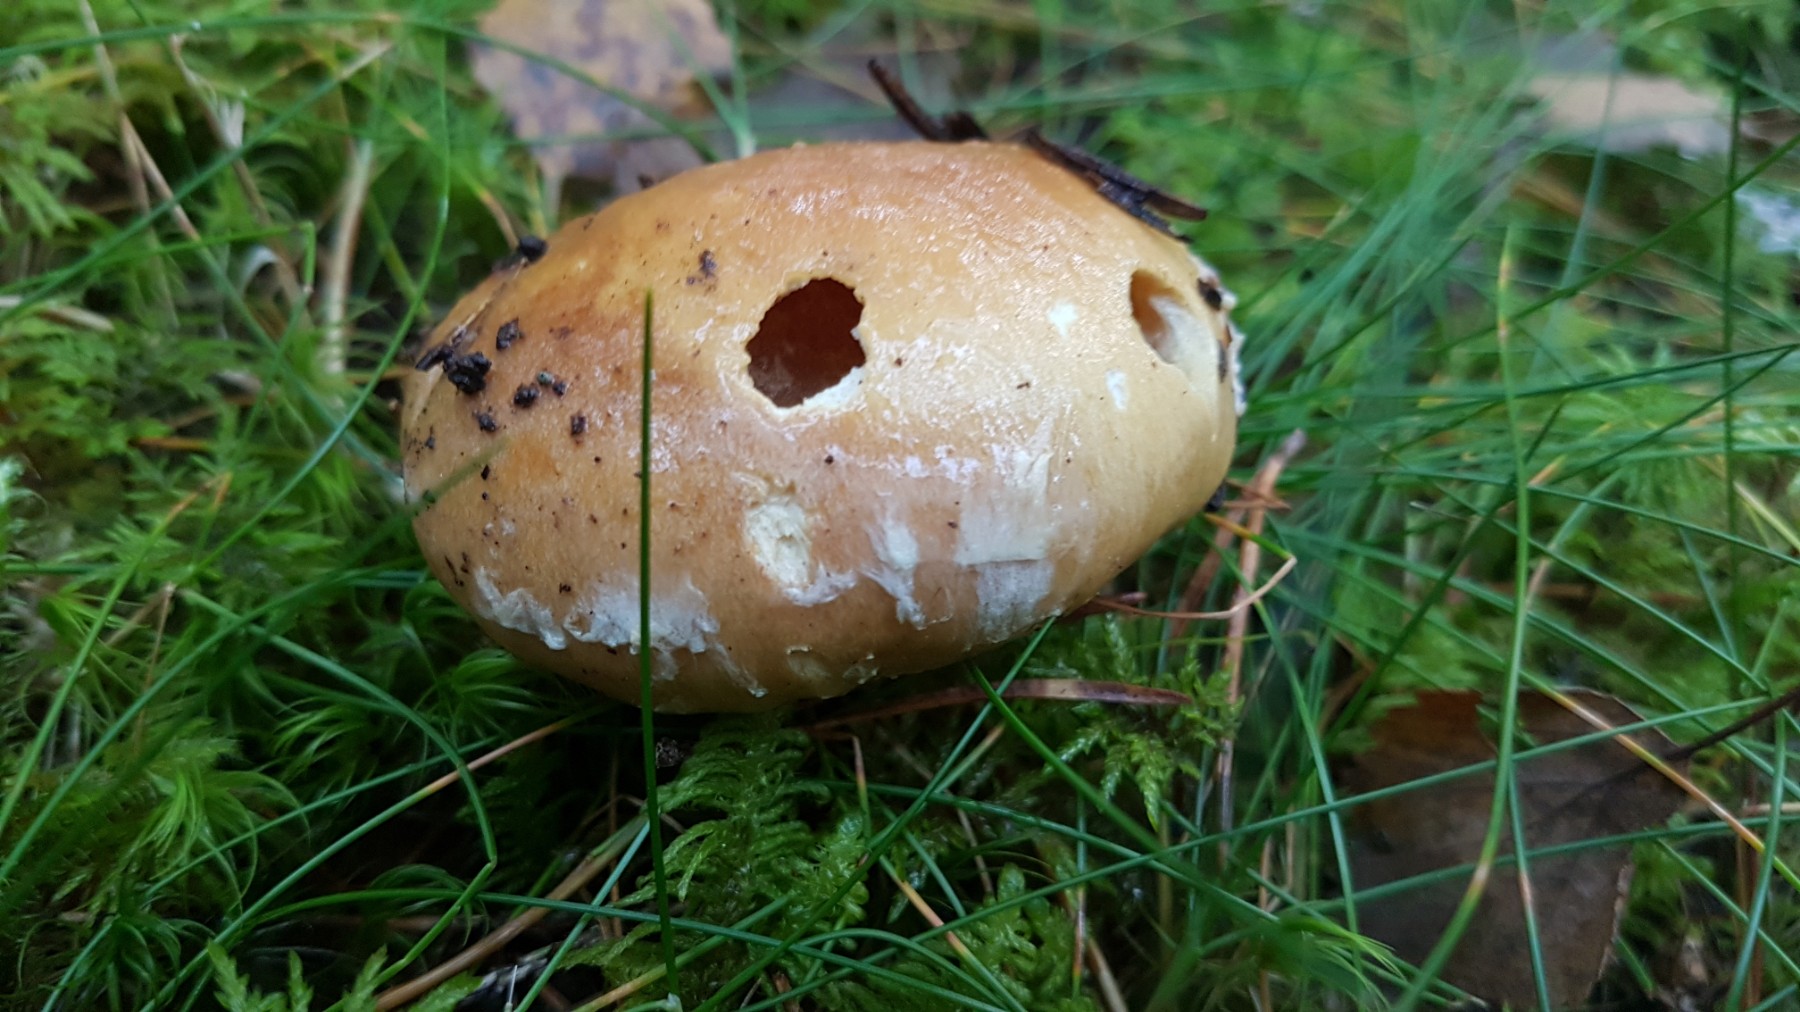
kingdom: Fungi
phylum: Basidiomycota
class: Agaricomycetes
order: Agaricales
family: Cortinariaceae
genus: Cortinarius
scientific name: Cortinarius claricolor
